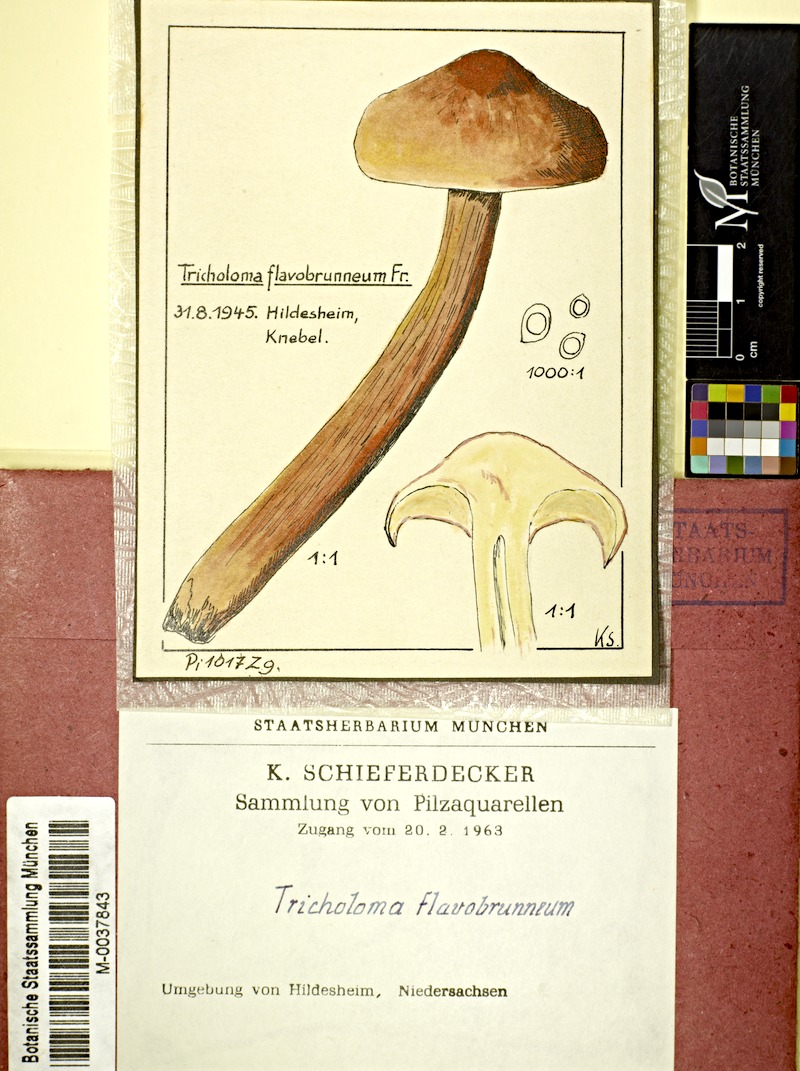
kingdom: Fungi
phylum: Basidiomycota
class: Agaricomycetes
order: Agaricales
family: Tricholomataceae
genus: Tricholoma
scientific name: Tricholoma fulvum
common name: Birch knight
